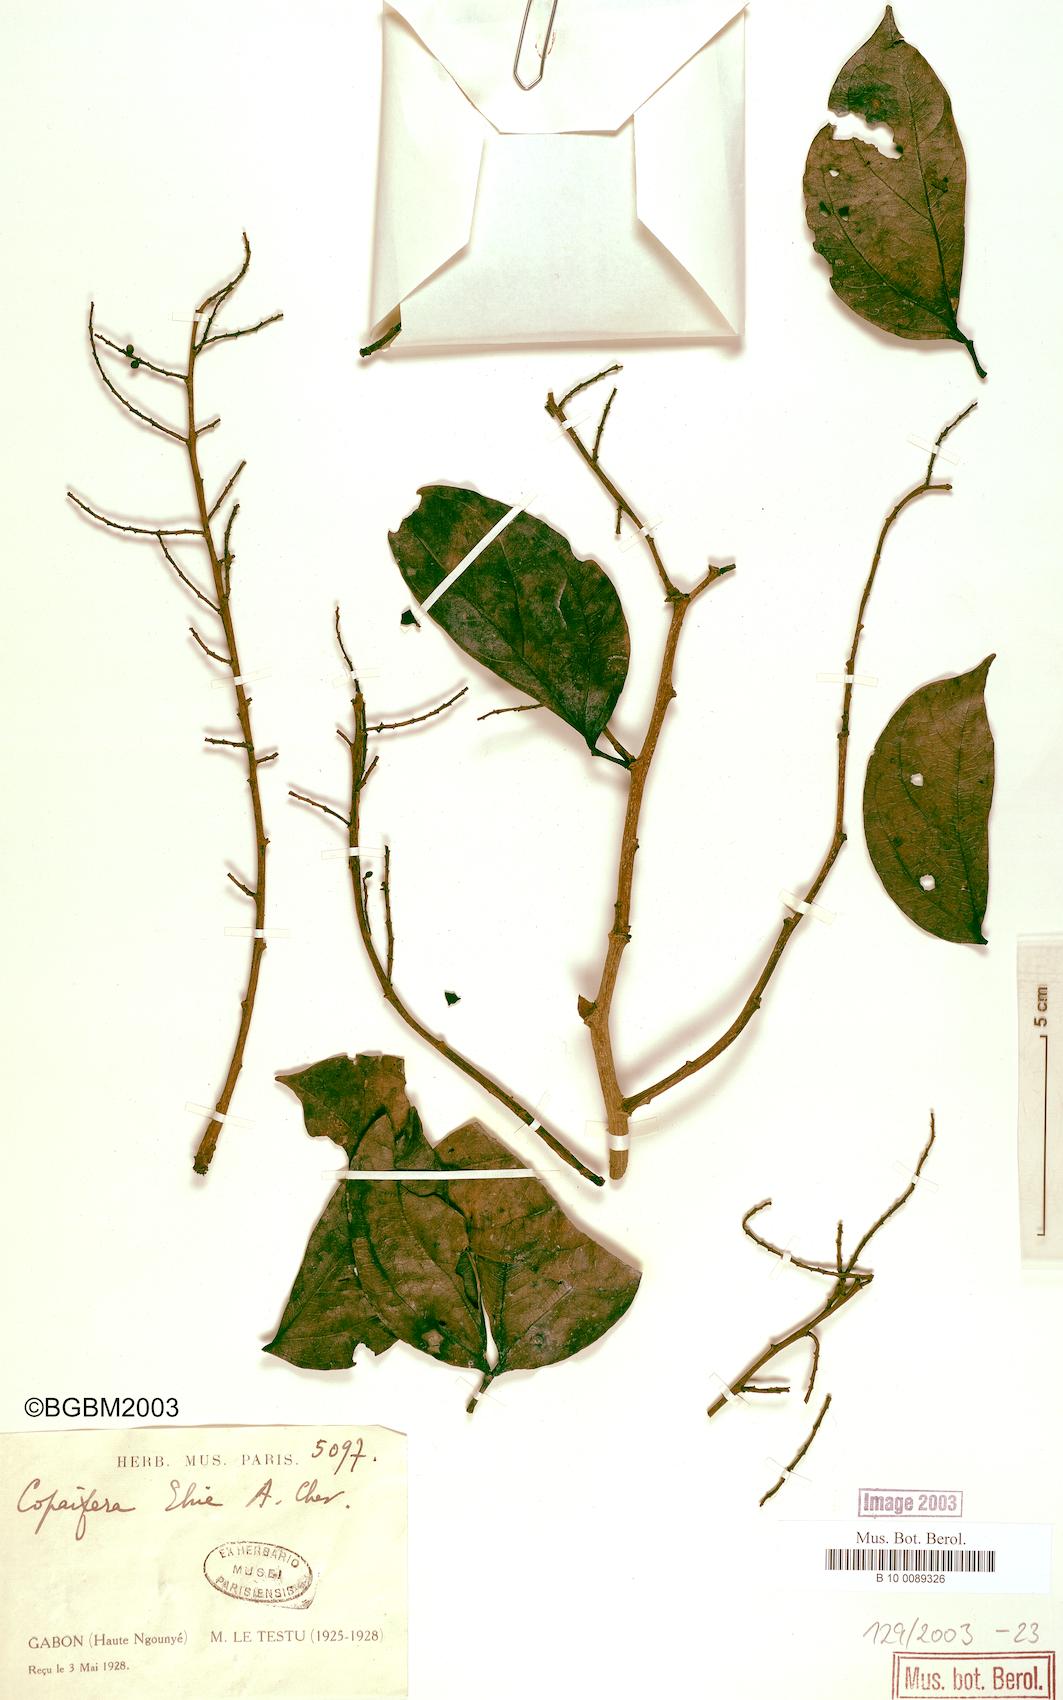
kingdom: Plantae
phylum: Tracheophyta
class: Magnoliopsida
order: Fabales
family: Fabaceae
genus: Guibourtia
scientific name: Guibourtia ehie
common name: Black hyedua
